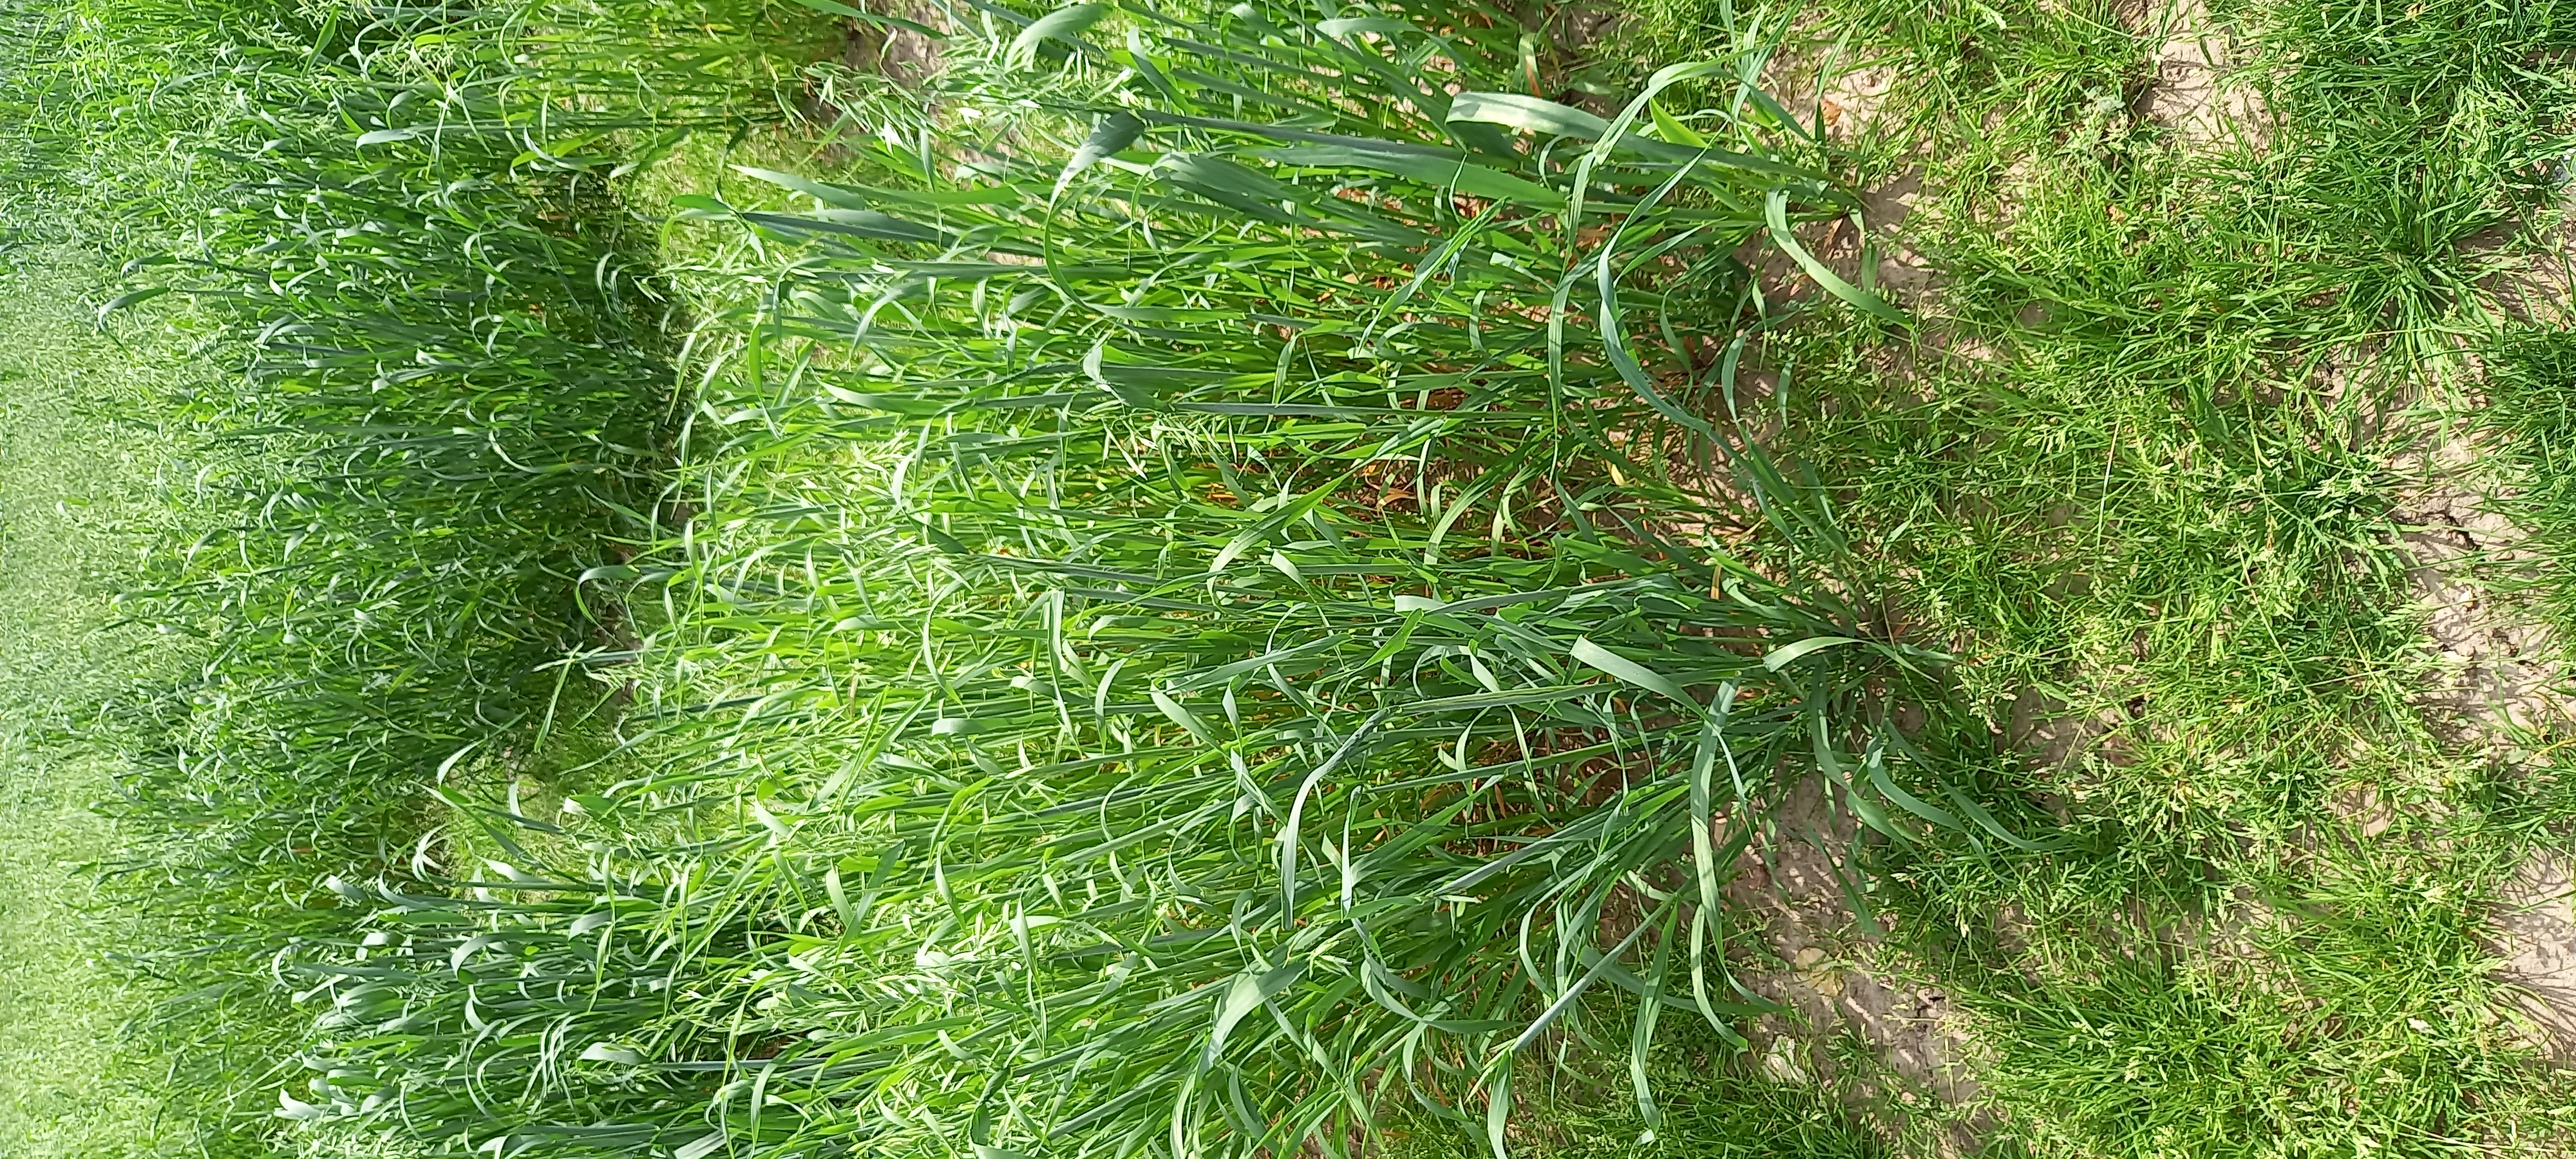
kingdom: Plantae
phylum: Tracheophyta
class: Liliopsida
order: Poales
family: Poaceae
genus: Avena
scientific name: Avena sativa
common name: Oat
